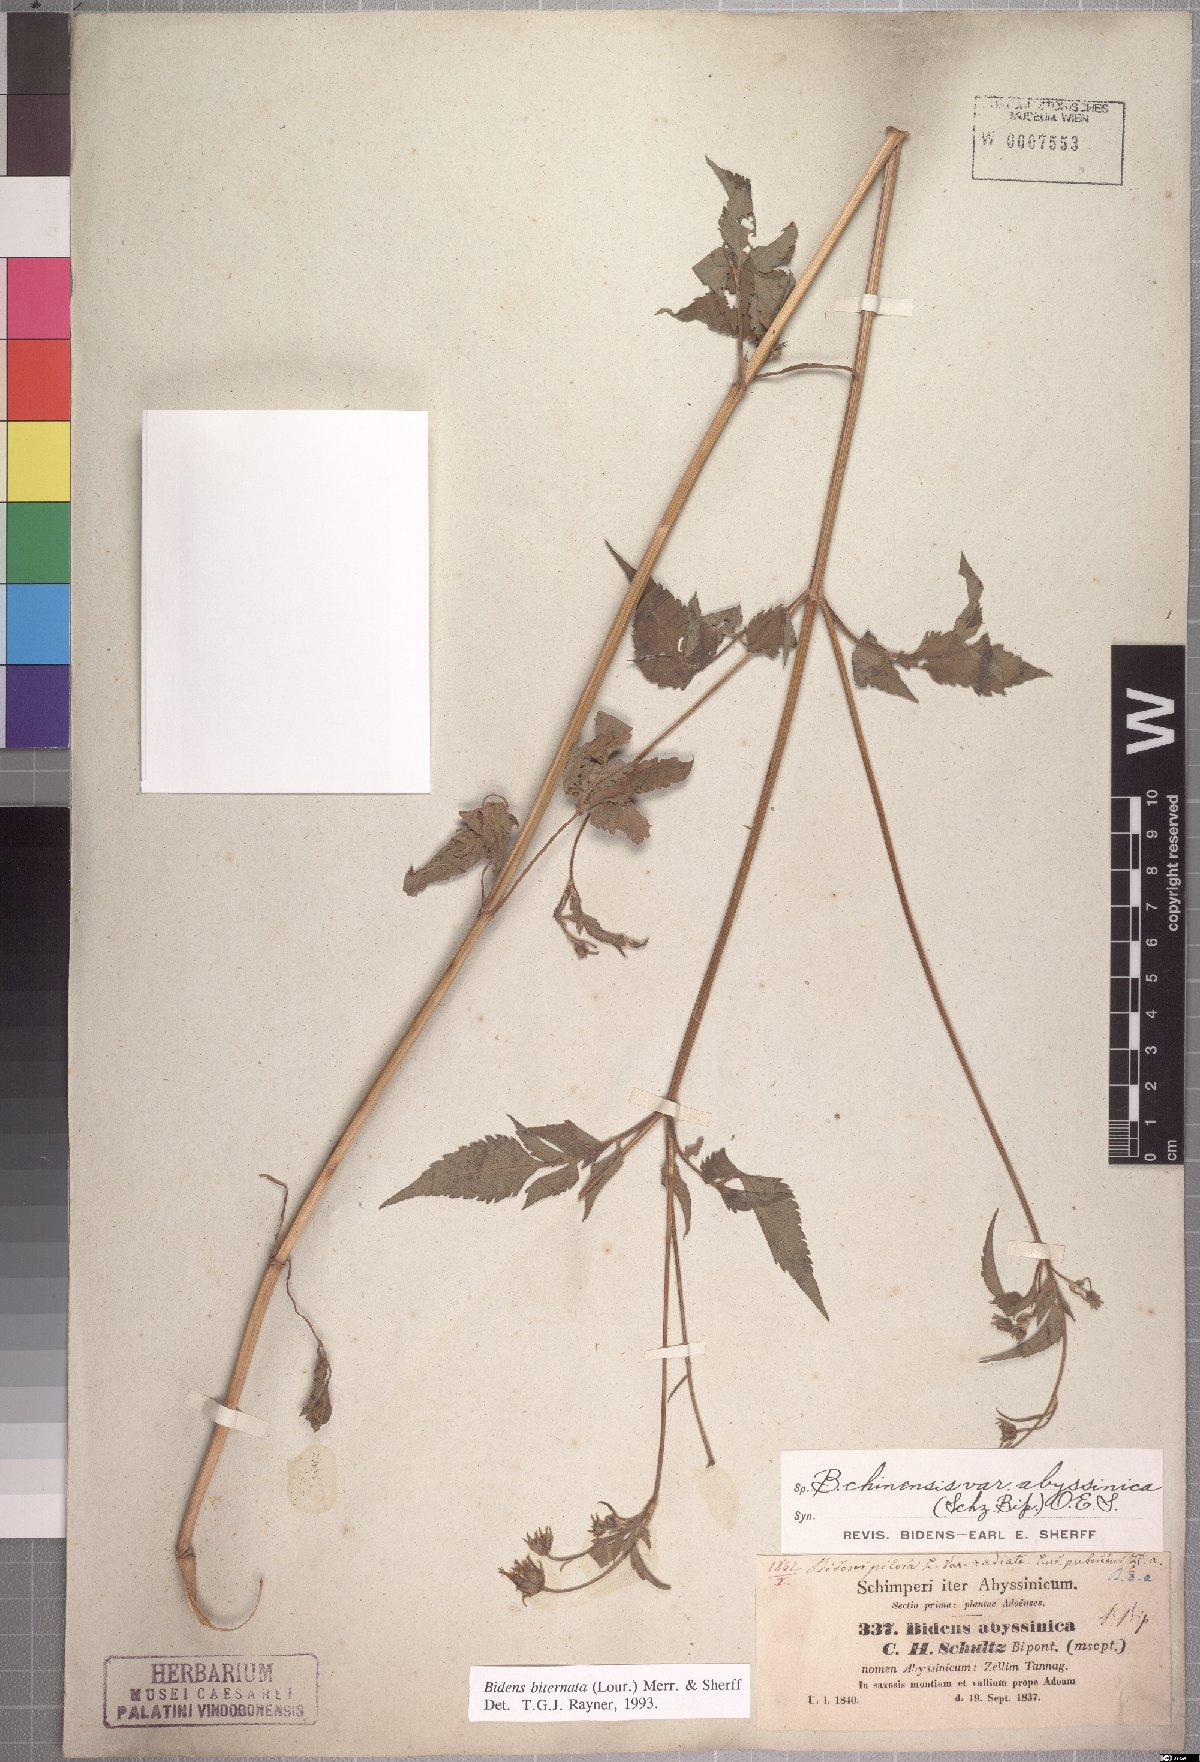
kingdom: Plantae
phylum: Tracheophyta
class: Magnoliopsida
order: Asterales
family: Asteraceae
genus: Bidens
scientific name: Bidens biternata
